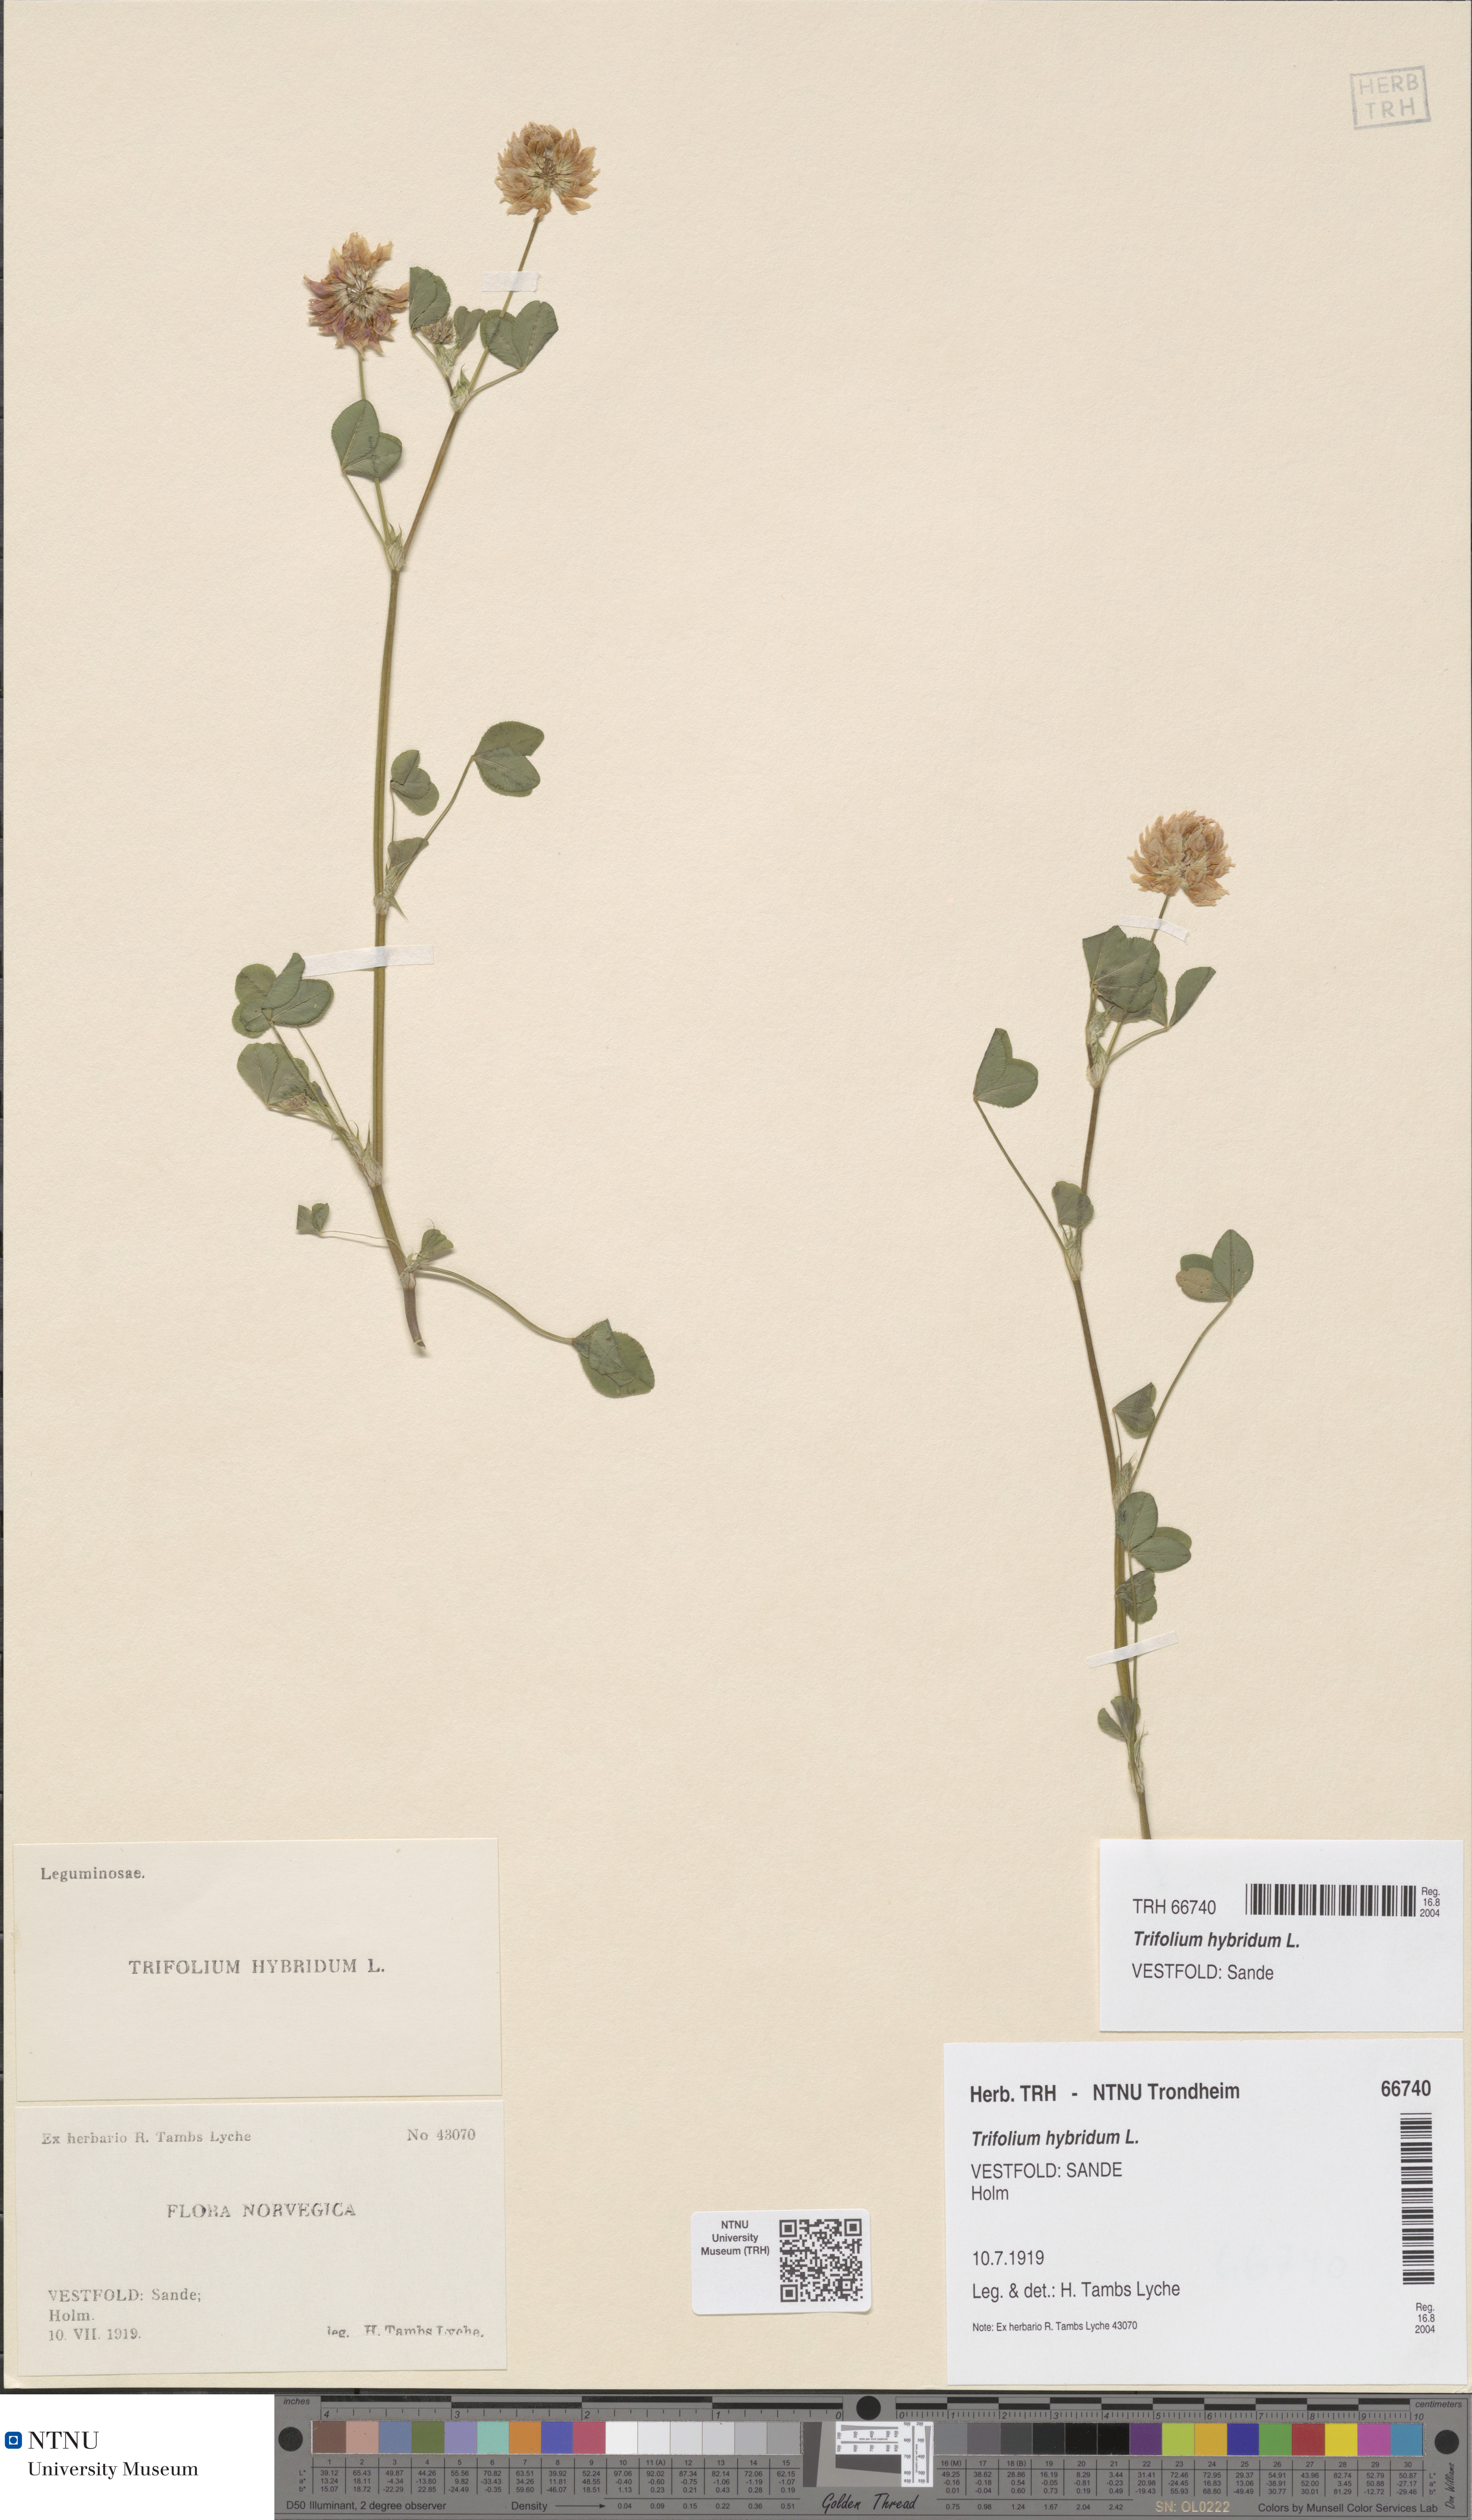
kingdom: Plantae
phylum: Tracheophyta
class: Magnoliopsida
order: Fabales
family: Fabaceae
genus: Trifolium
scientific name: Trifolium hybridum
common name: Alsike clover
